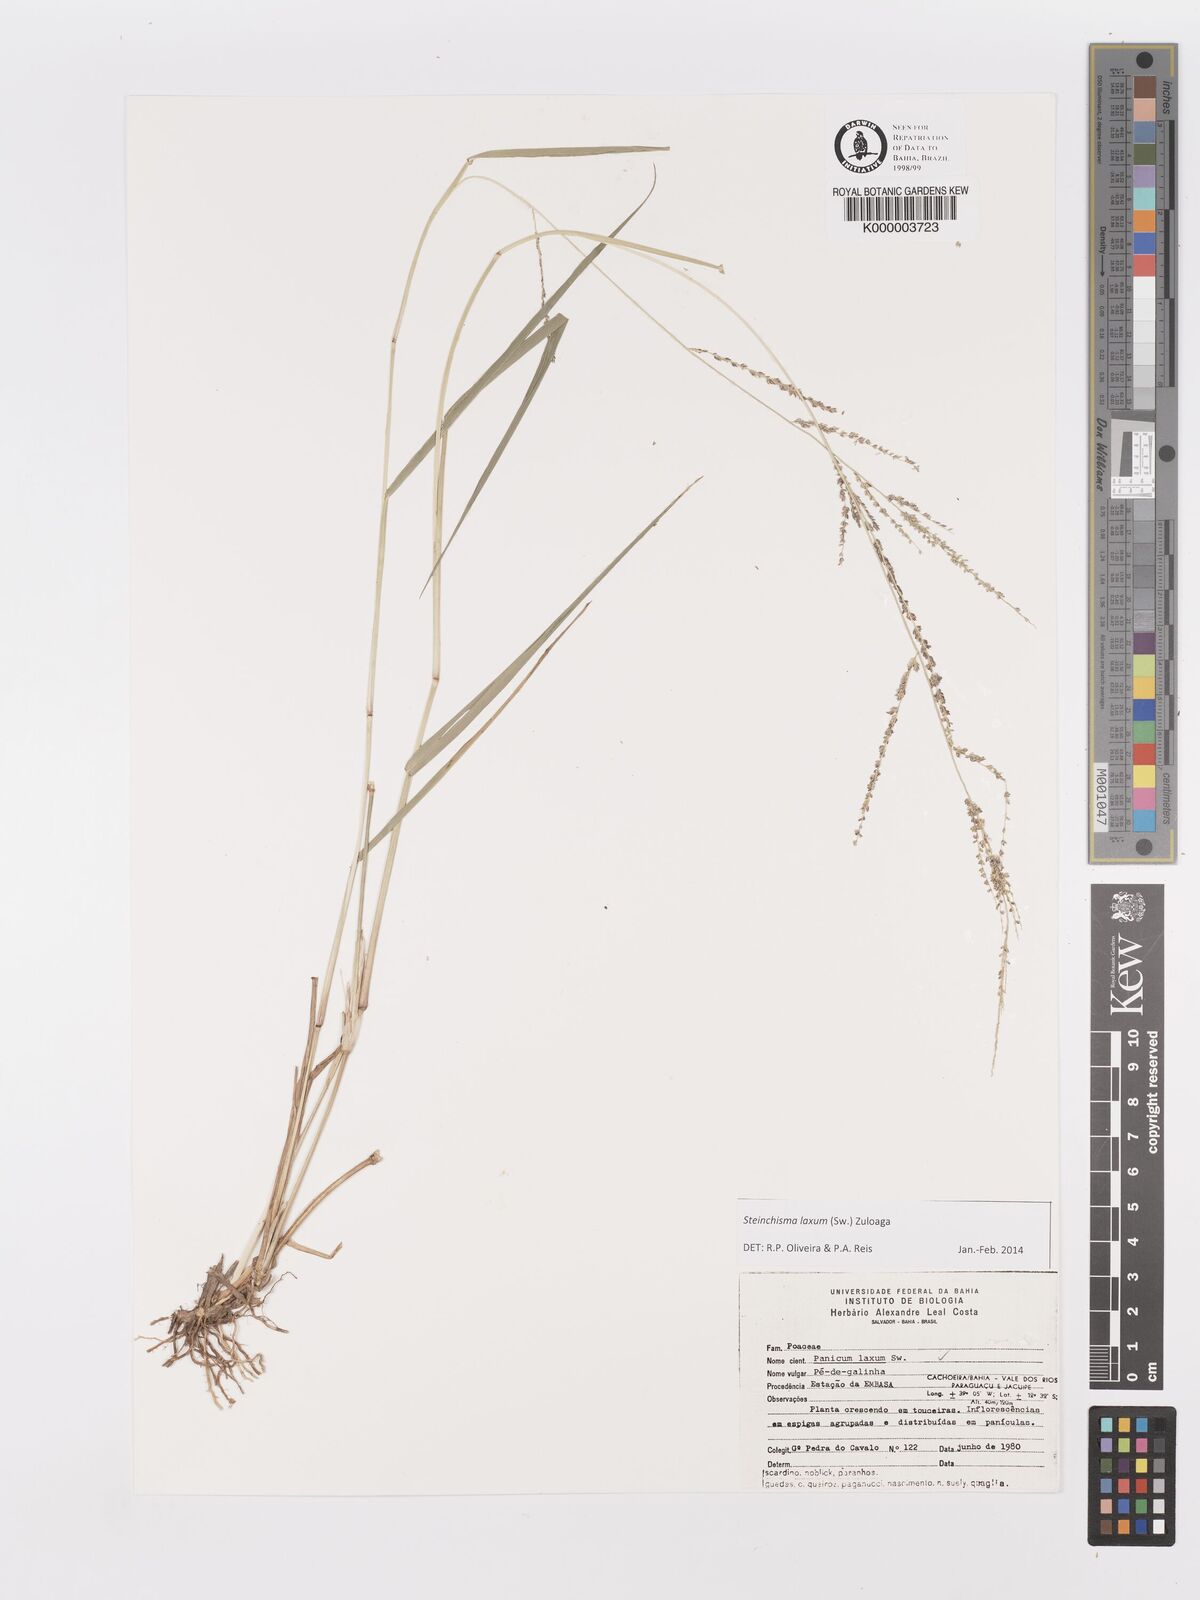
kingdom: Plantae
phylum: Tracheophyta
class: Liliopsida
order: Poales
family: Poaceae
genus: Panicum
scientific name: Panicum
